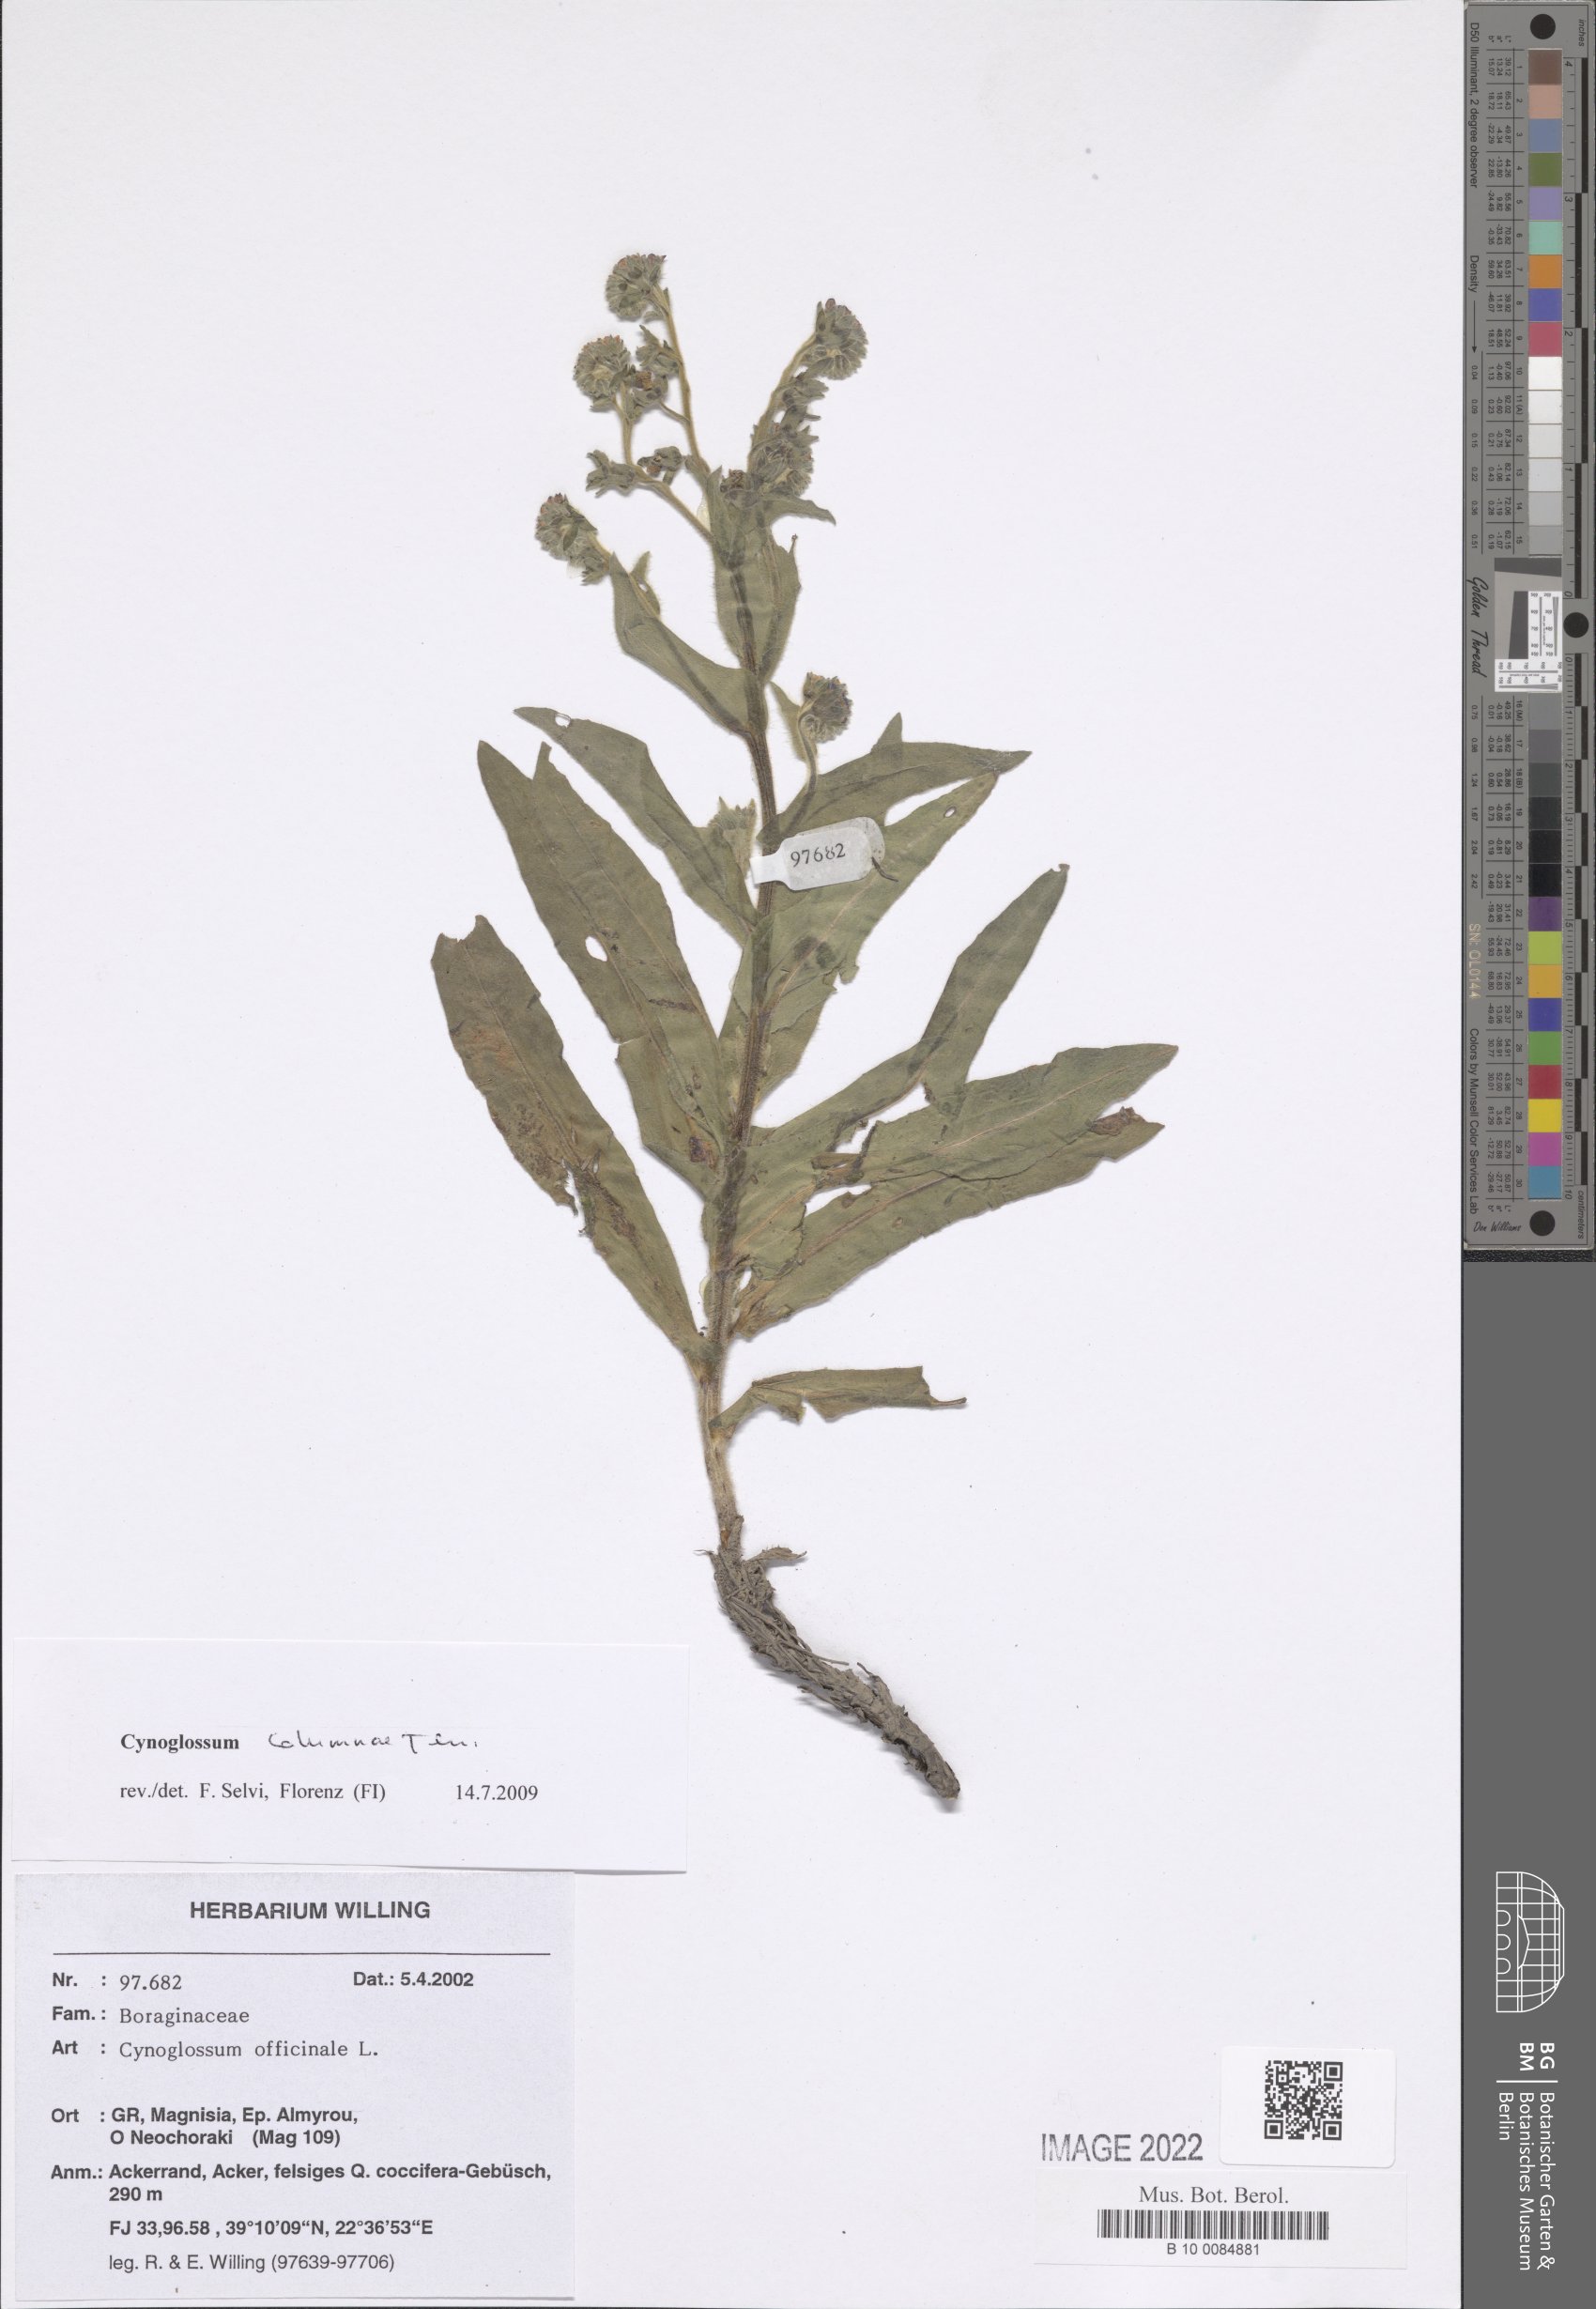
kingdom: Plantae
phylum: Tracheophyta
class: Magnoliopsida
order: Boraginales
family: Boraginaceae
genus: Rindera
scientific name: Rindera columnae
